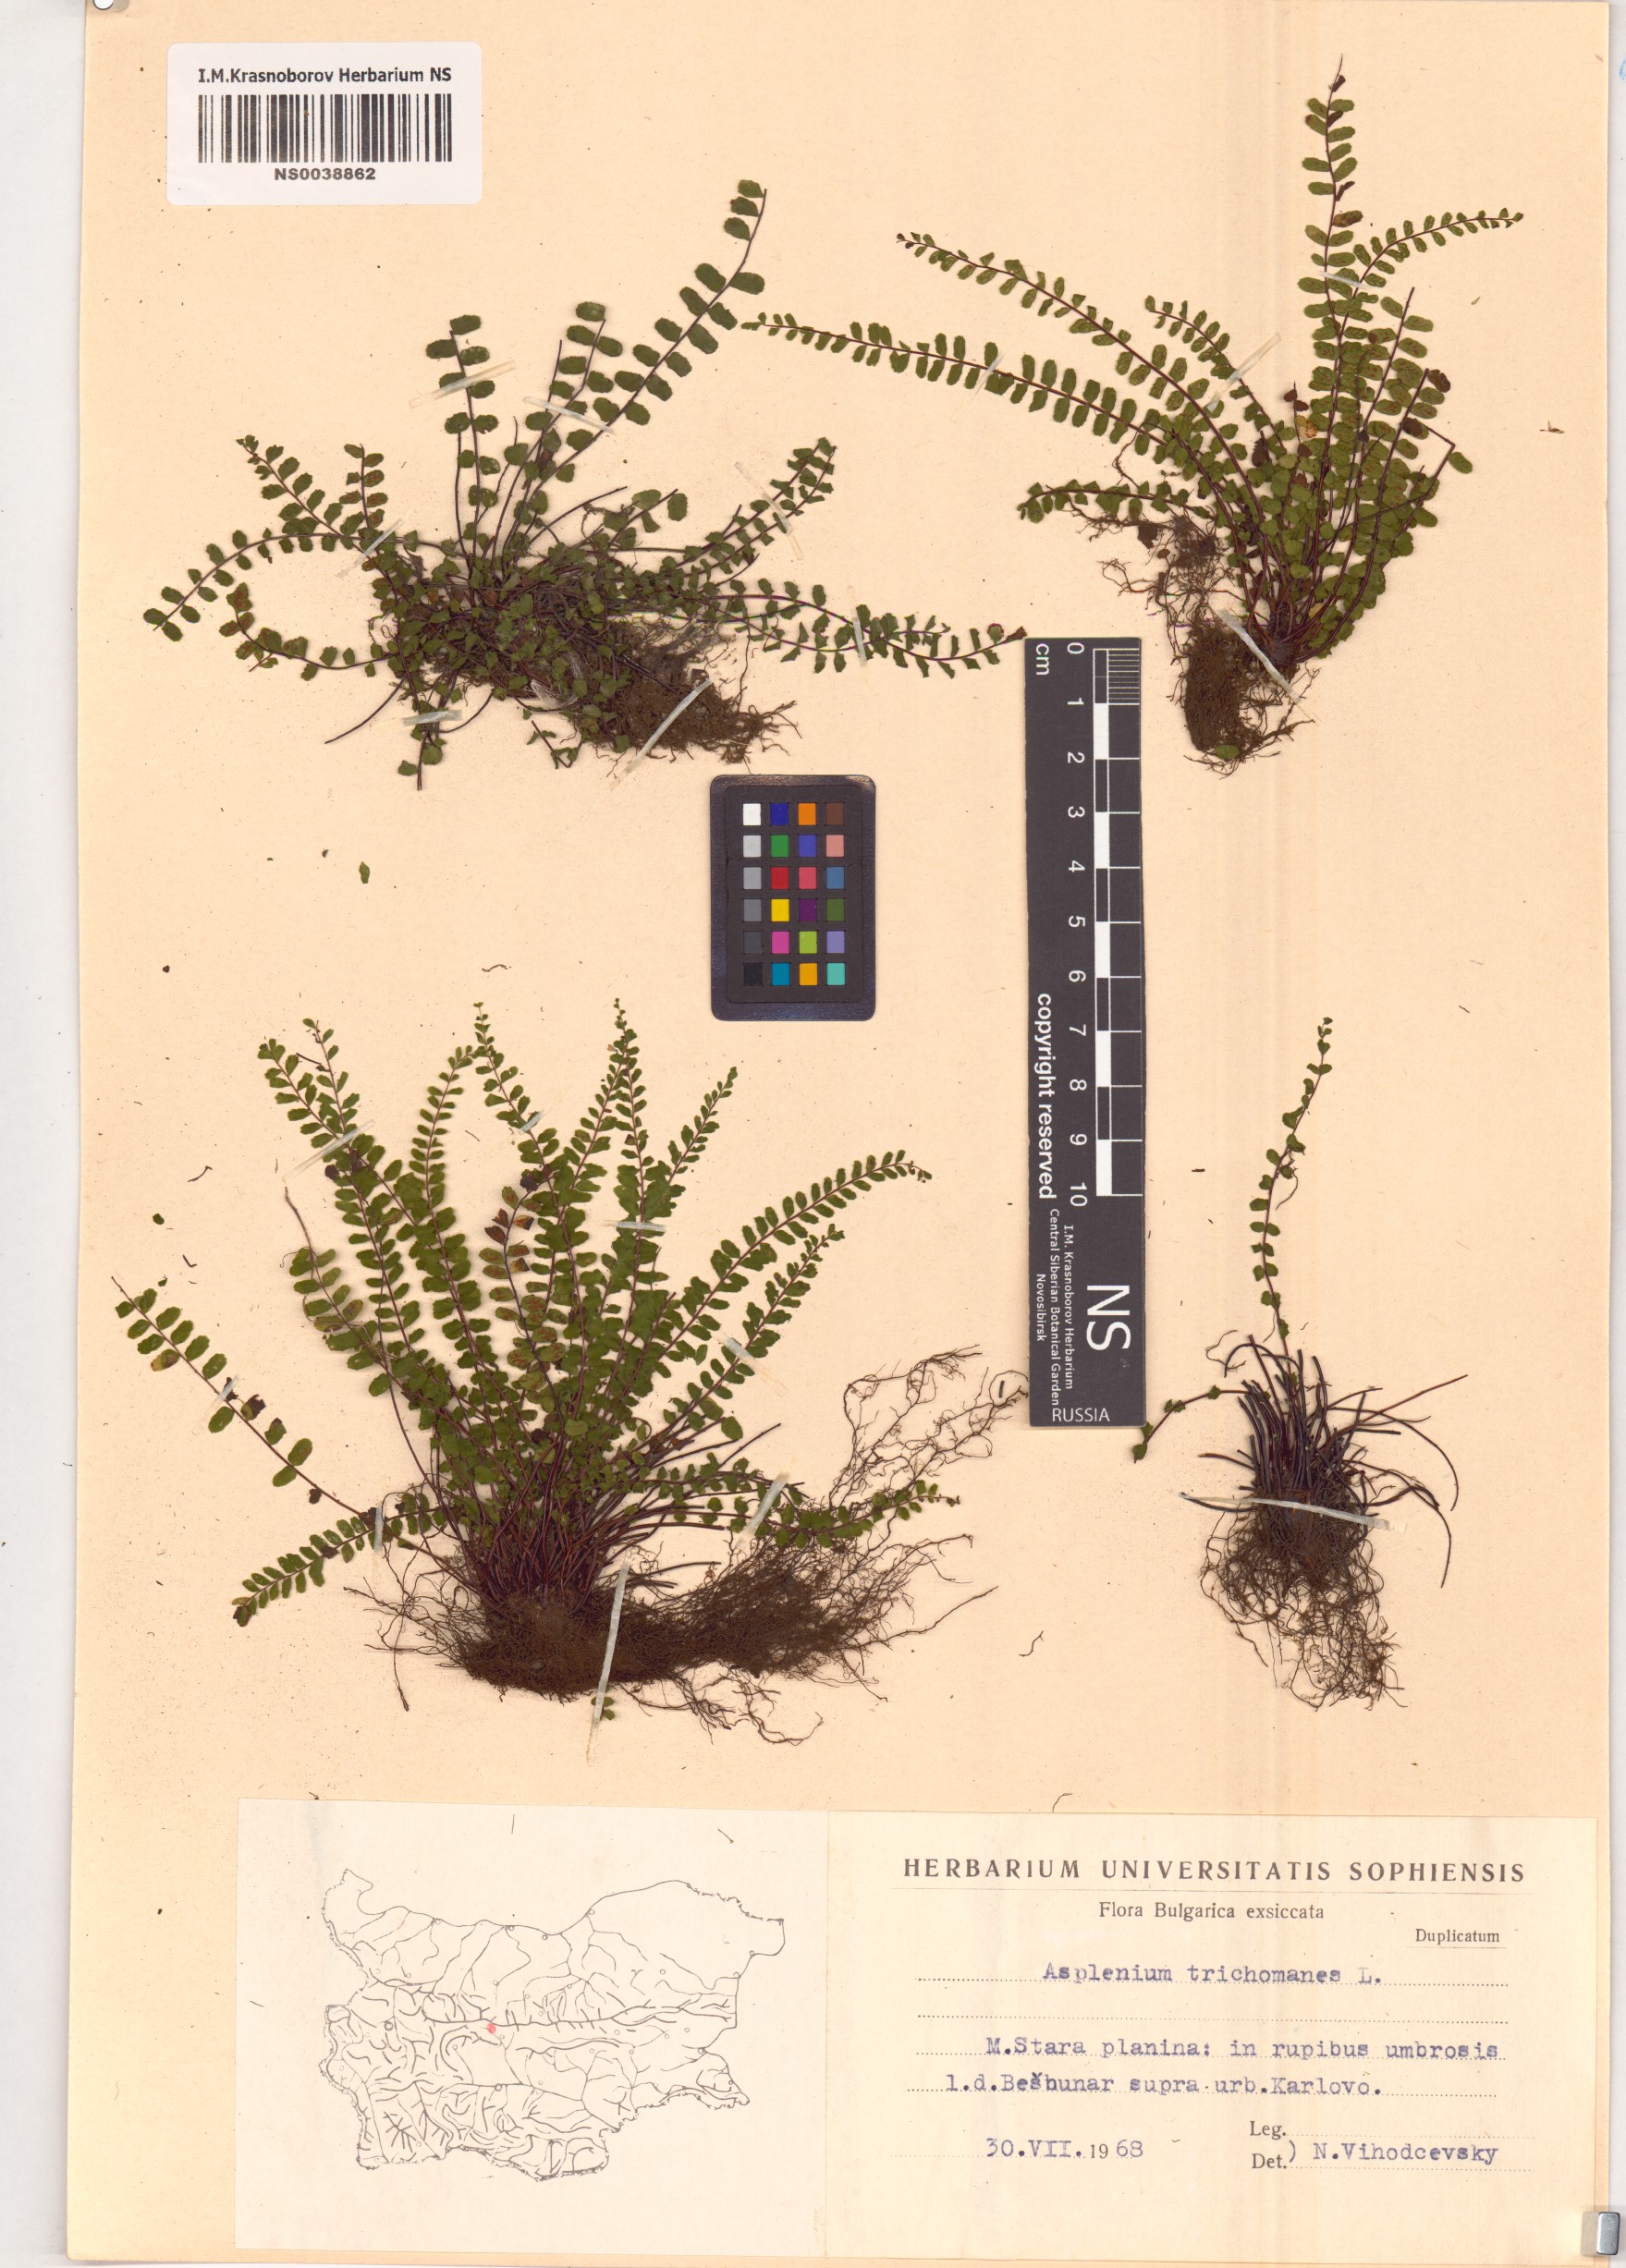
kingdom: Plantae
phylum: Tracheophyta
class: Polypodiopsida
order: Polypodiales
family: Aspleniaceae
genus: Asplenium
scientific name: Asplenium trichomanes
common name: Maidenhair spleenwort
